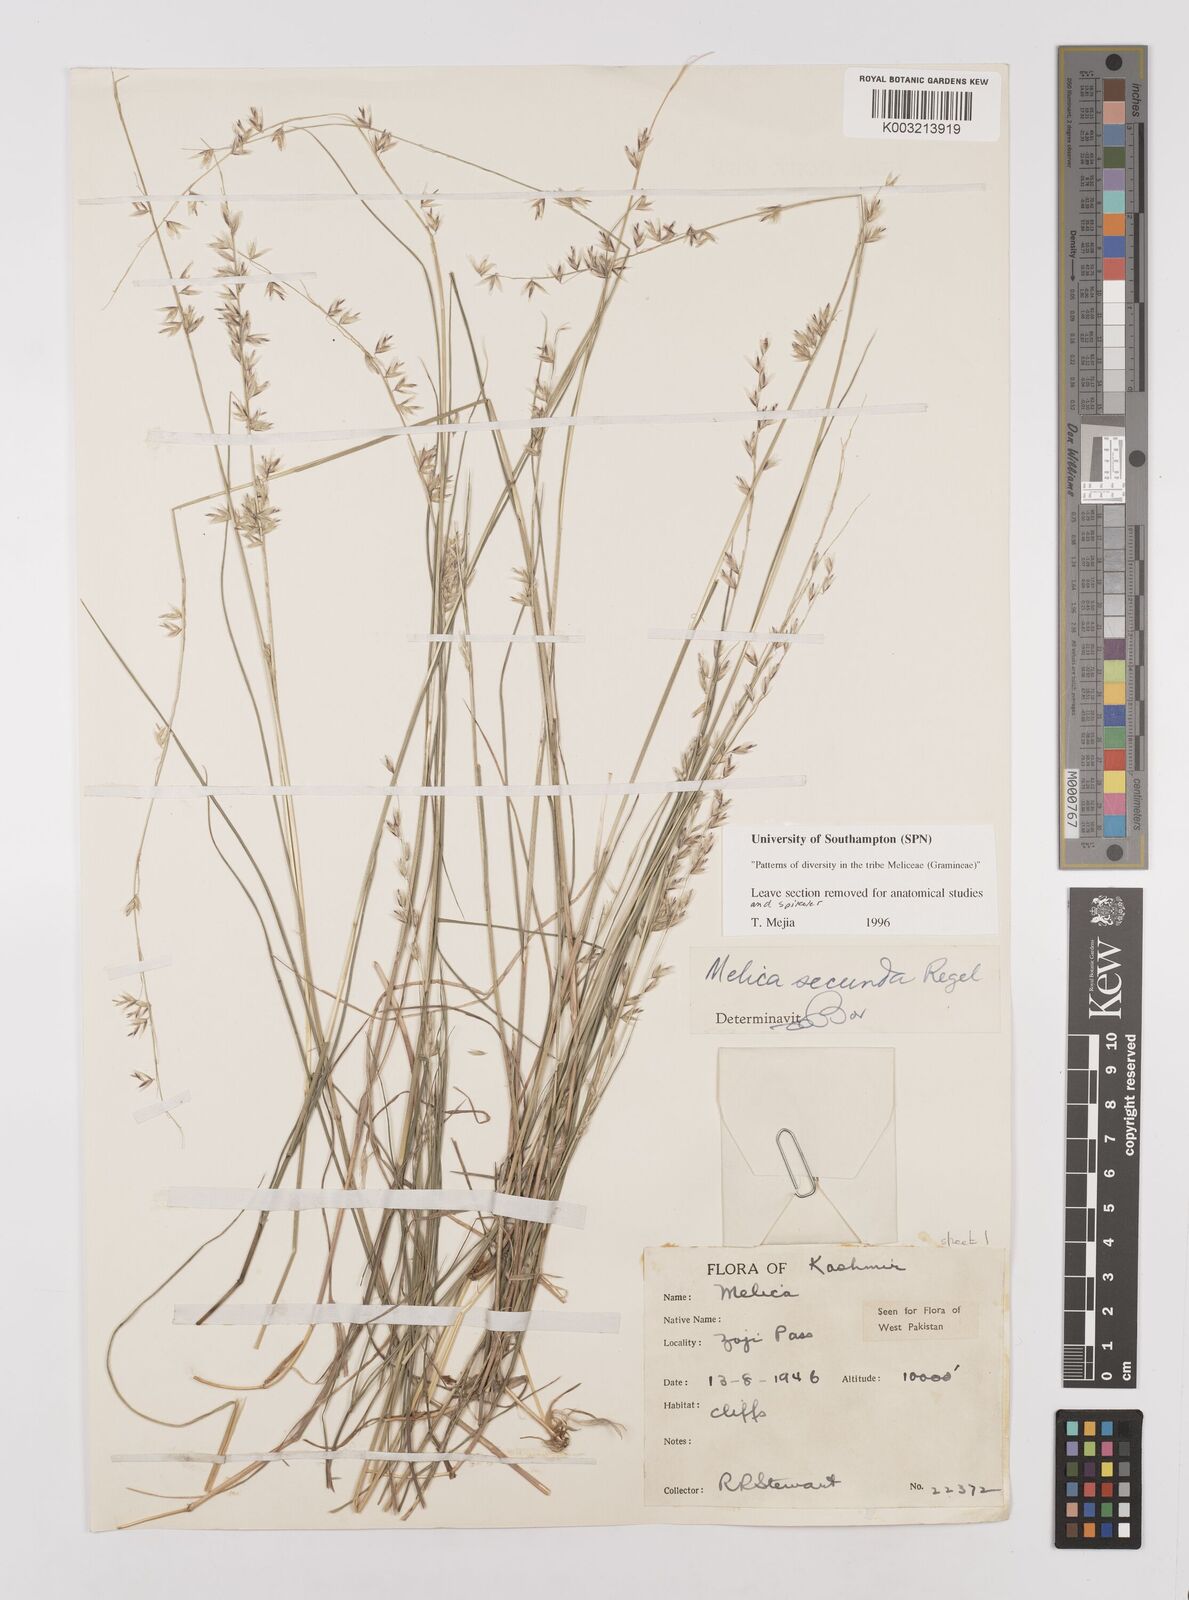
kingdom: Plantae
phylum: Tracheophyta
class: Liliopsida
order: Poales
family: Poaceae
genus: Melica
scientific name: Melica secunda
